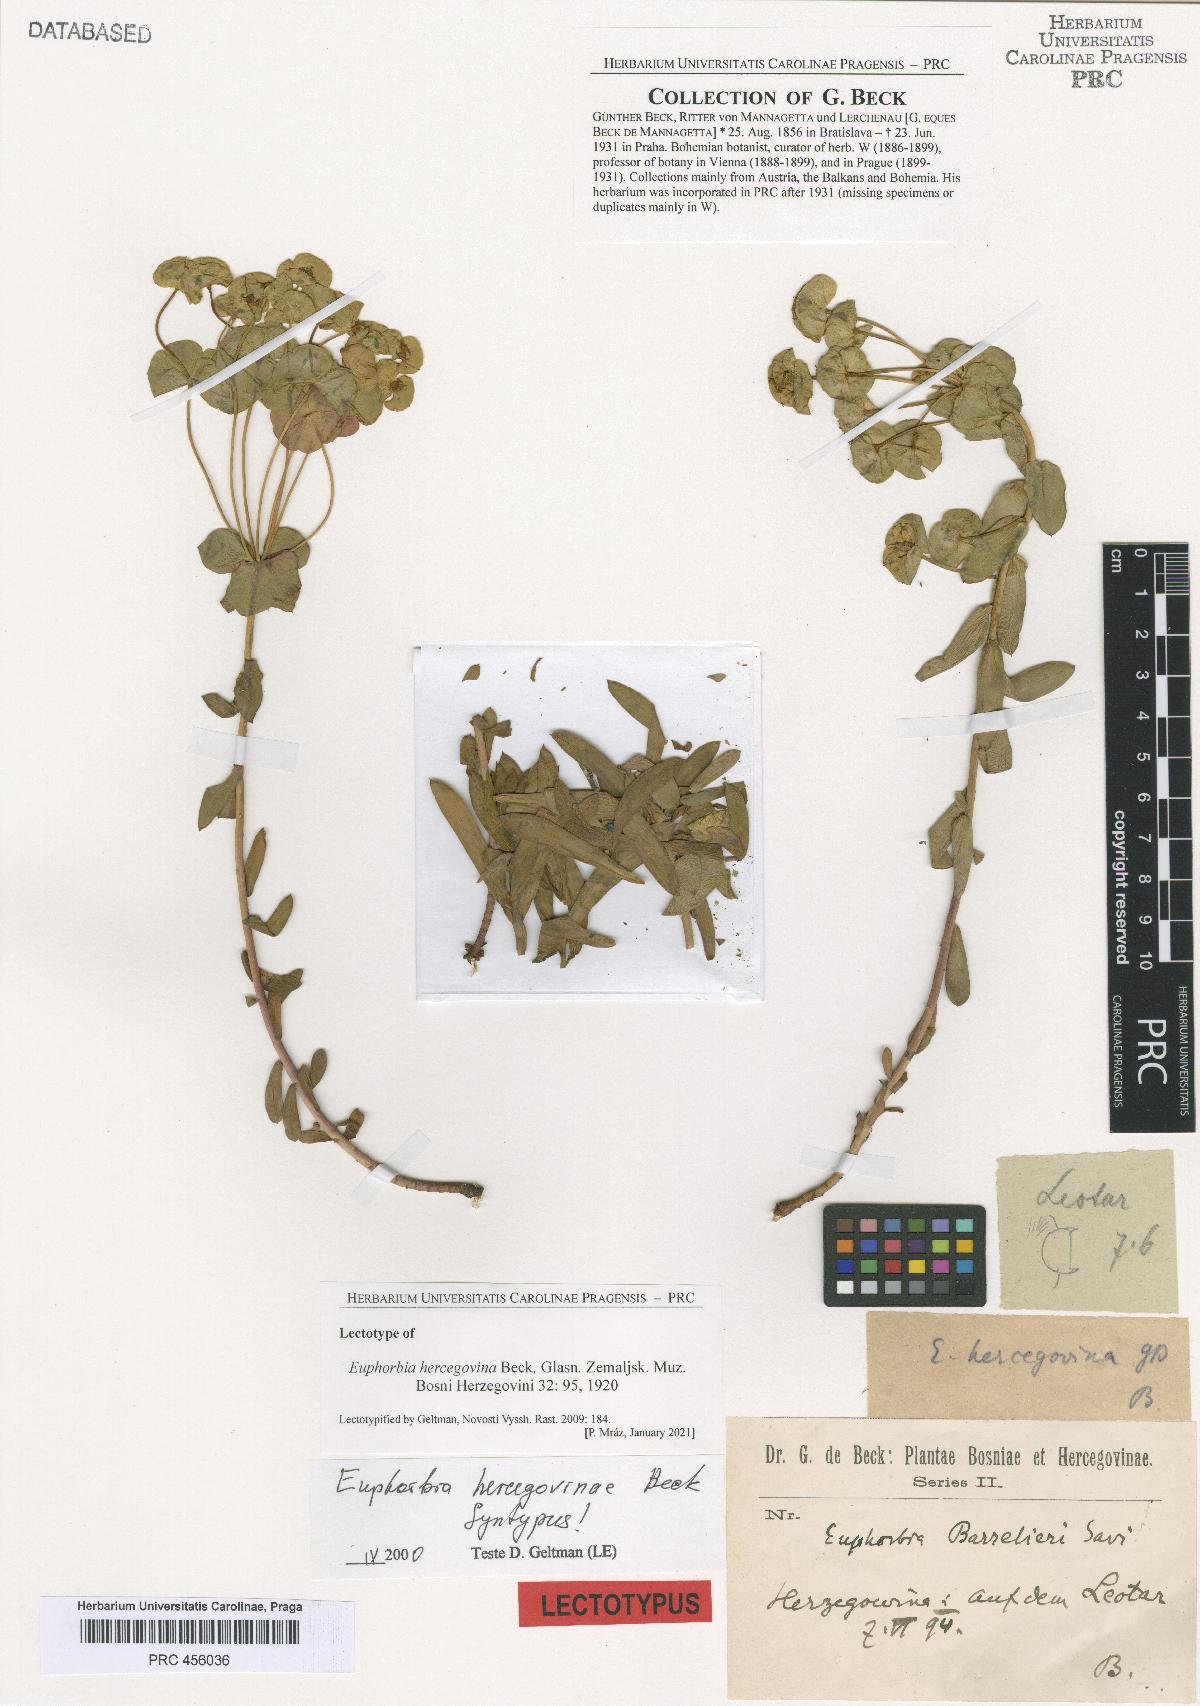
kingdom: Plantae
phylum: Tracheophyta
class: Magnoliopsida
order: Malpighiales
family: Euphorbiaceae
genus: Euphorbia
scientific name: Euphorbia barrelieri
